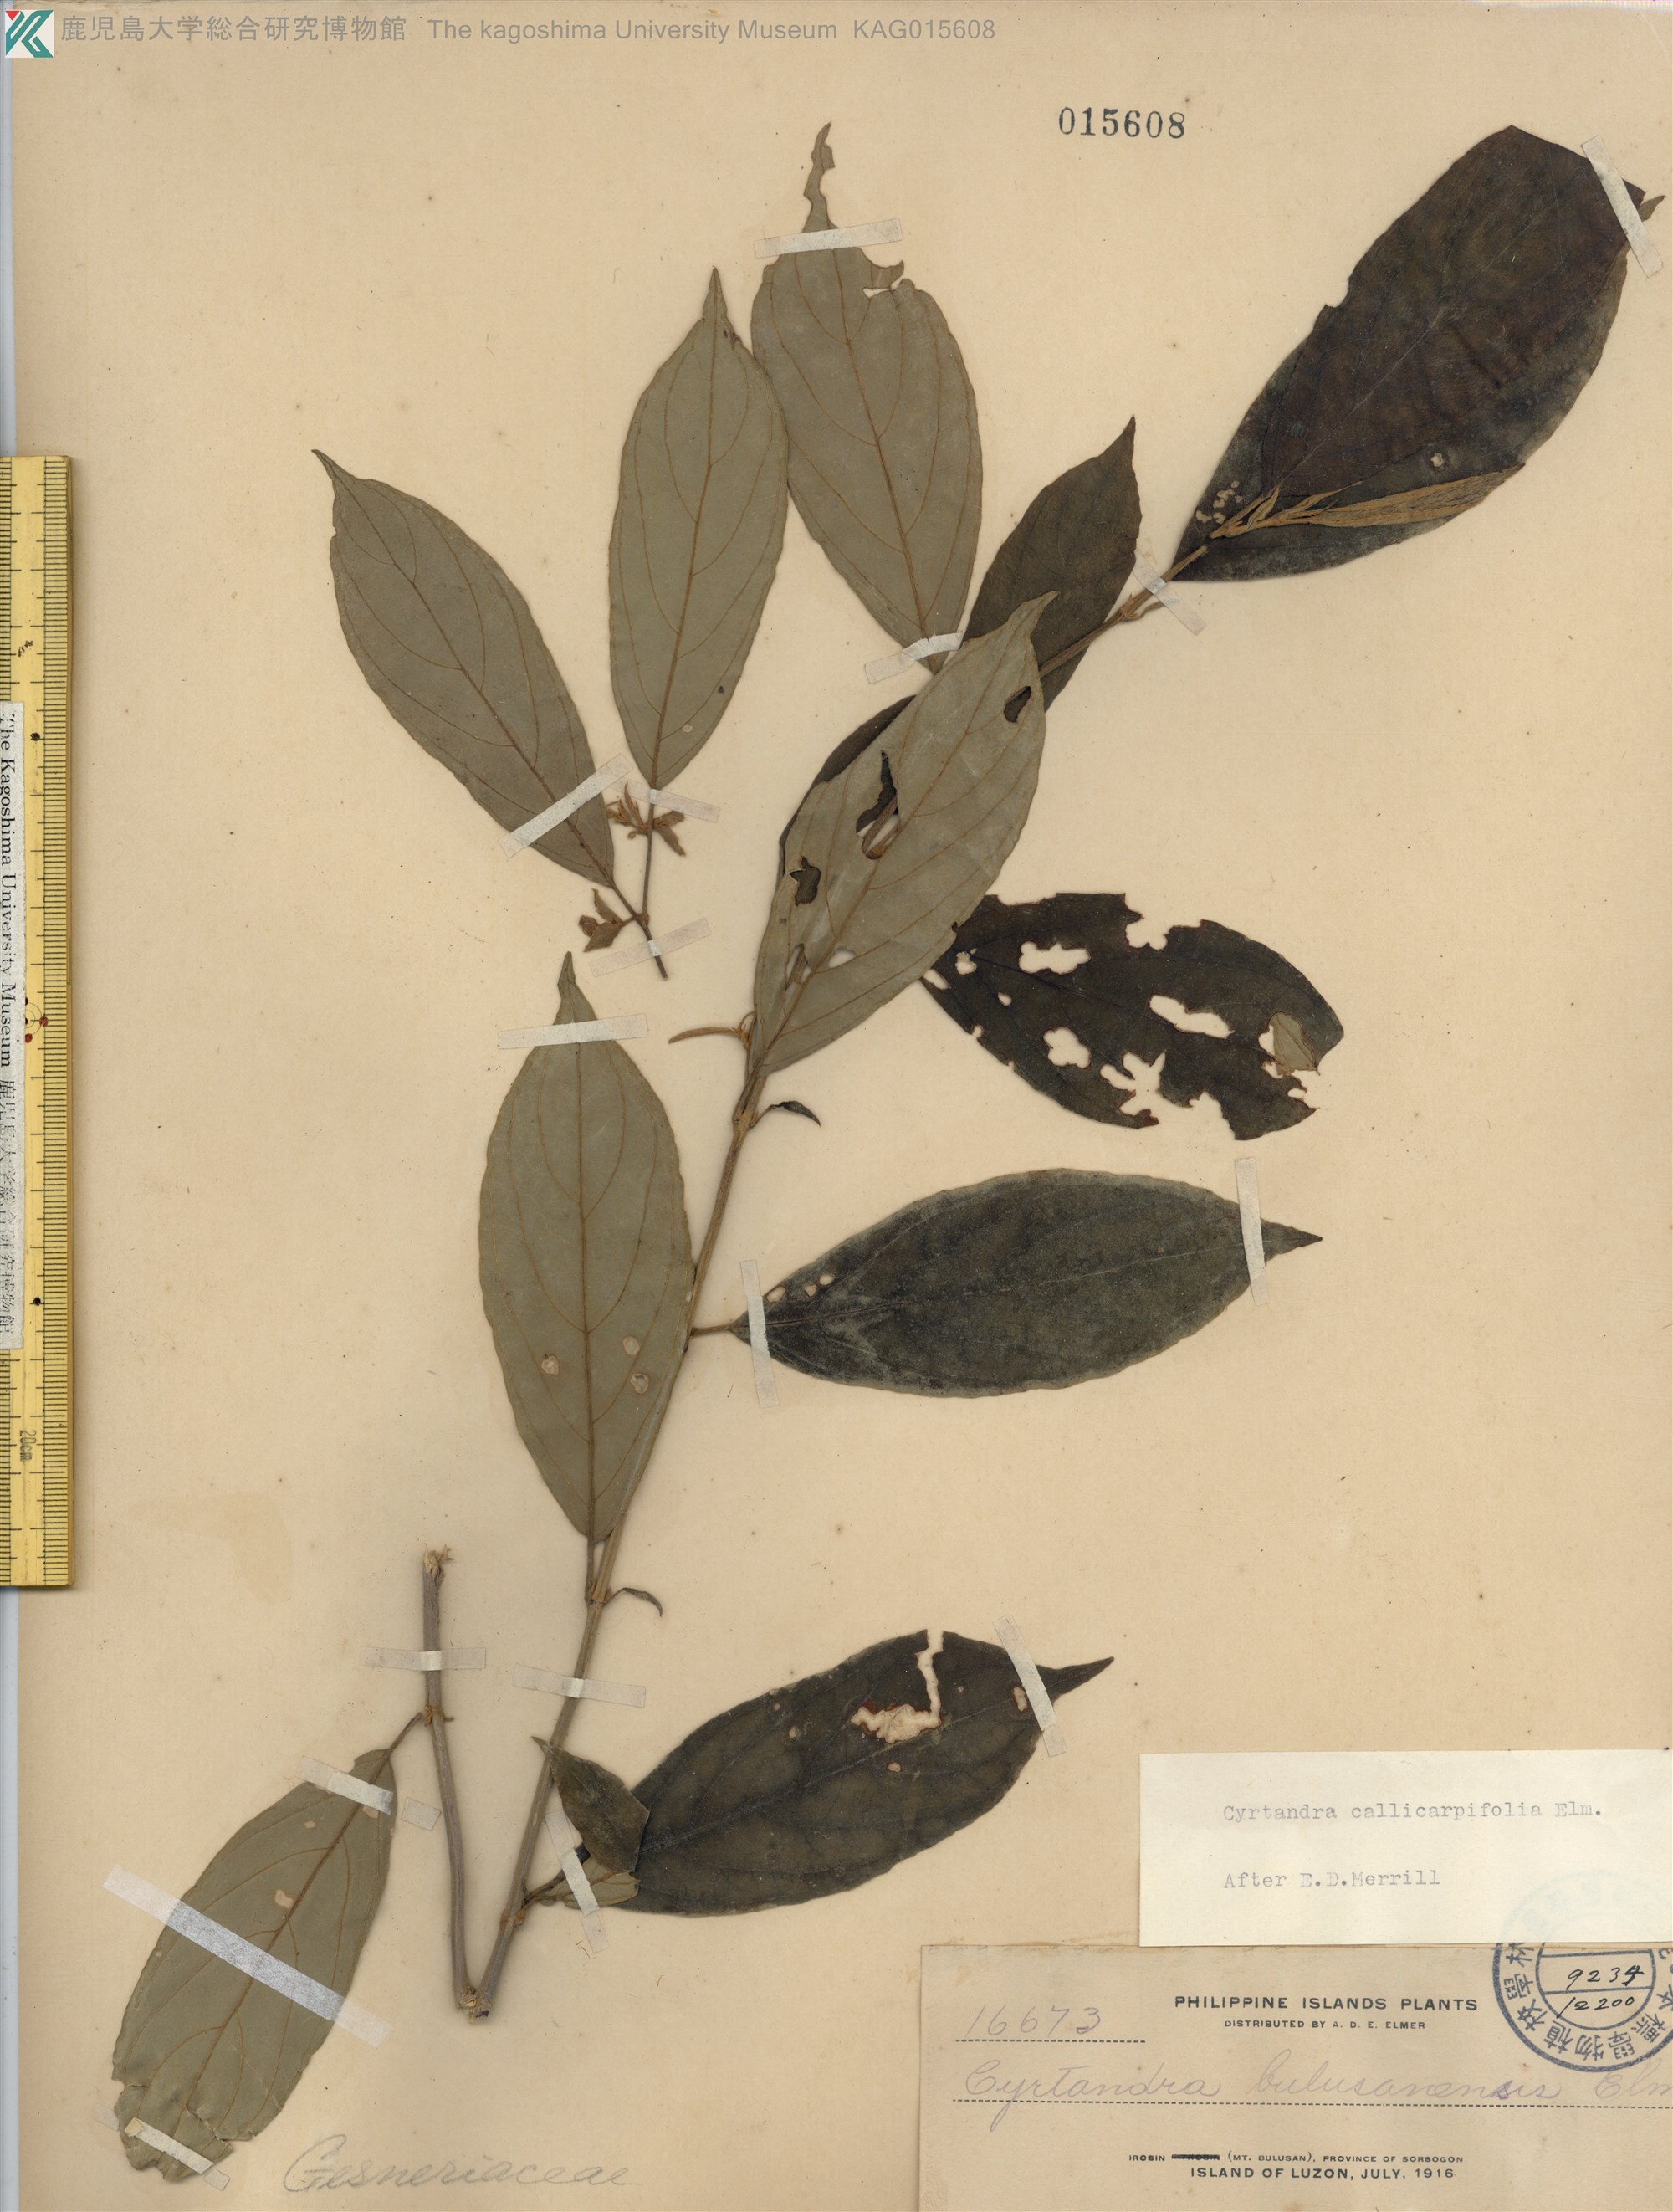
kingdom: Plantae
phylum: Tracheophyta
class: Magnoliopsida
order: Lamiales
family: Gesneriaceae
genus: Cyrtandra
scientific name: Cyrtandra callicarpifolia
